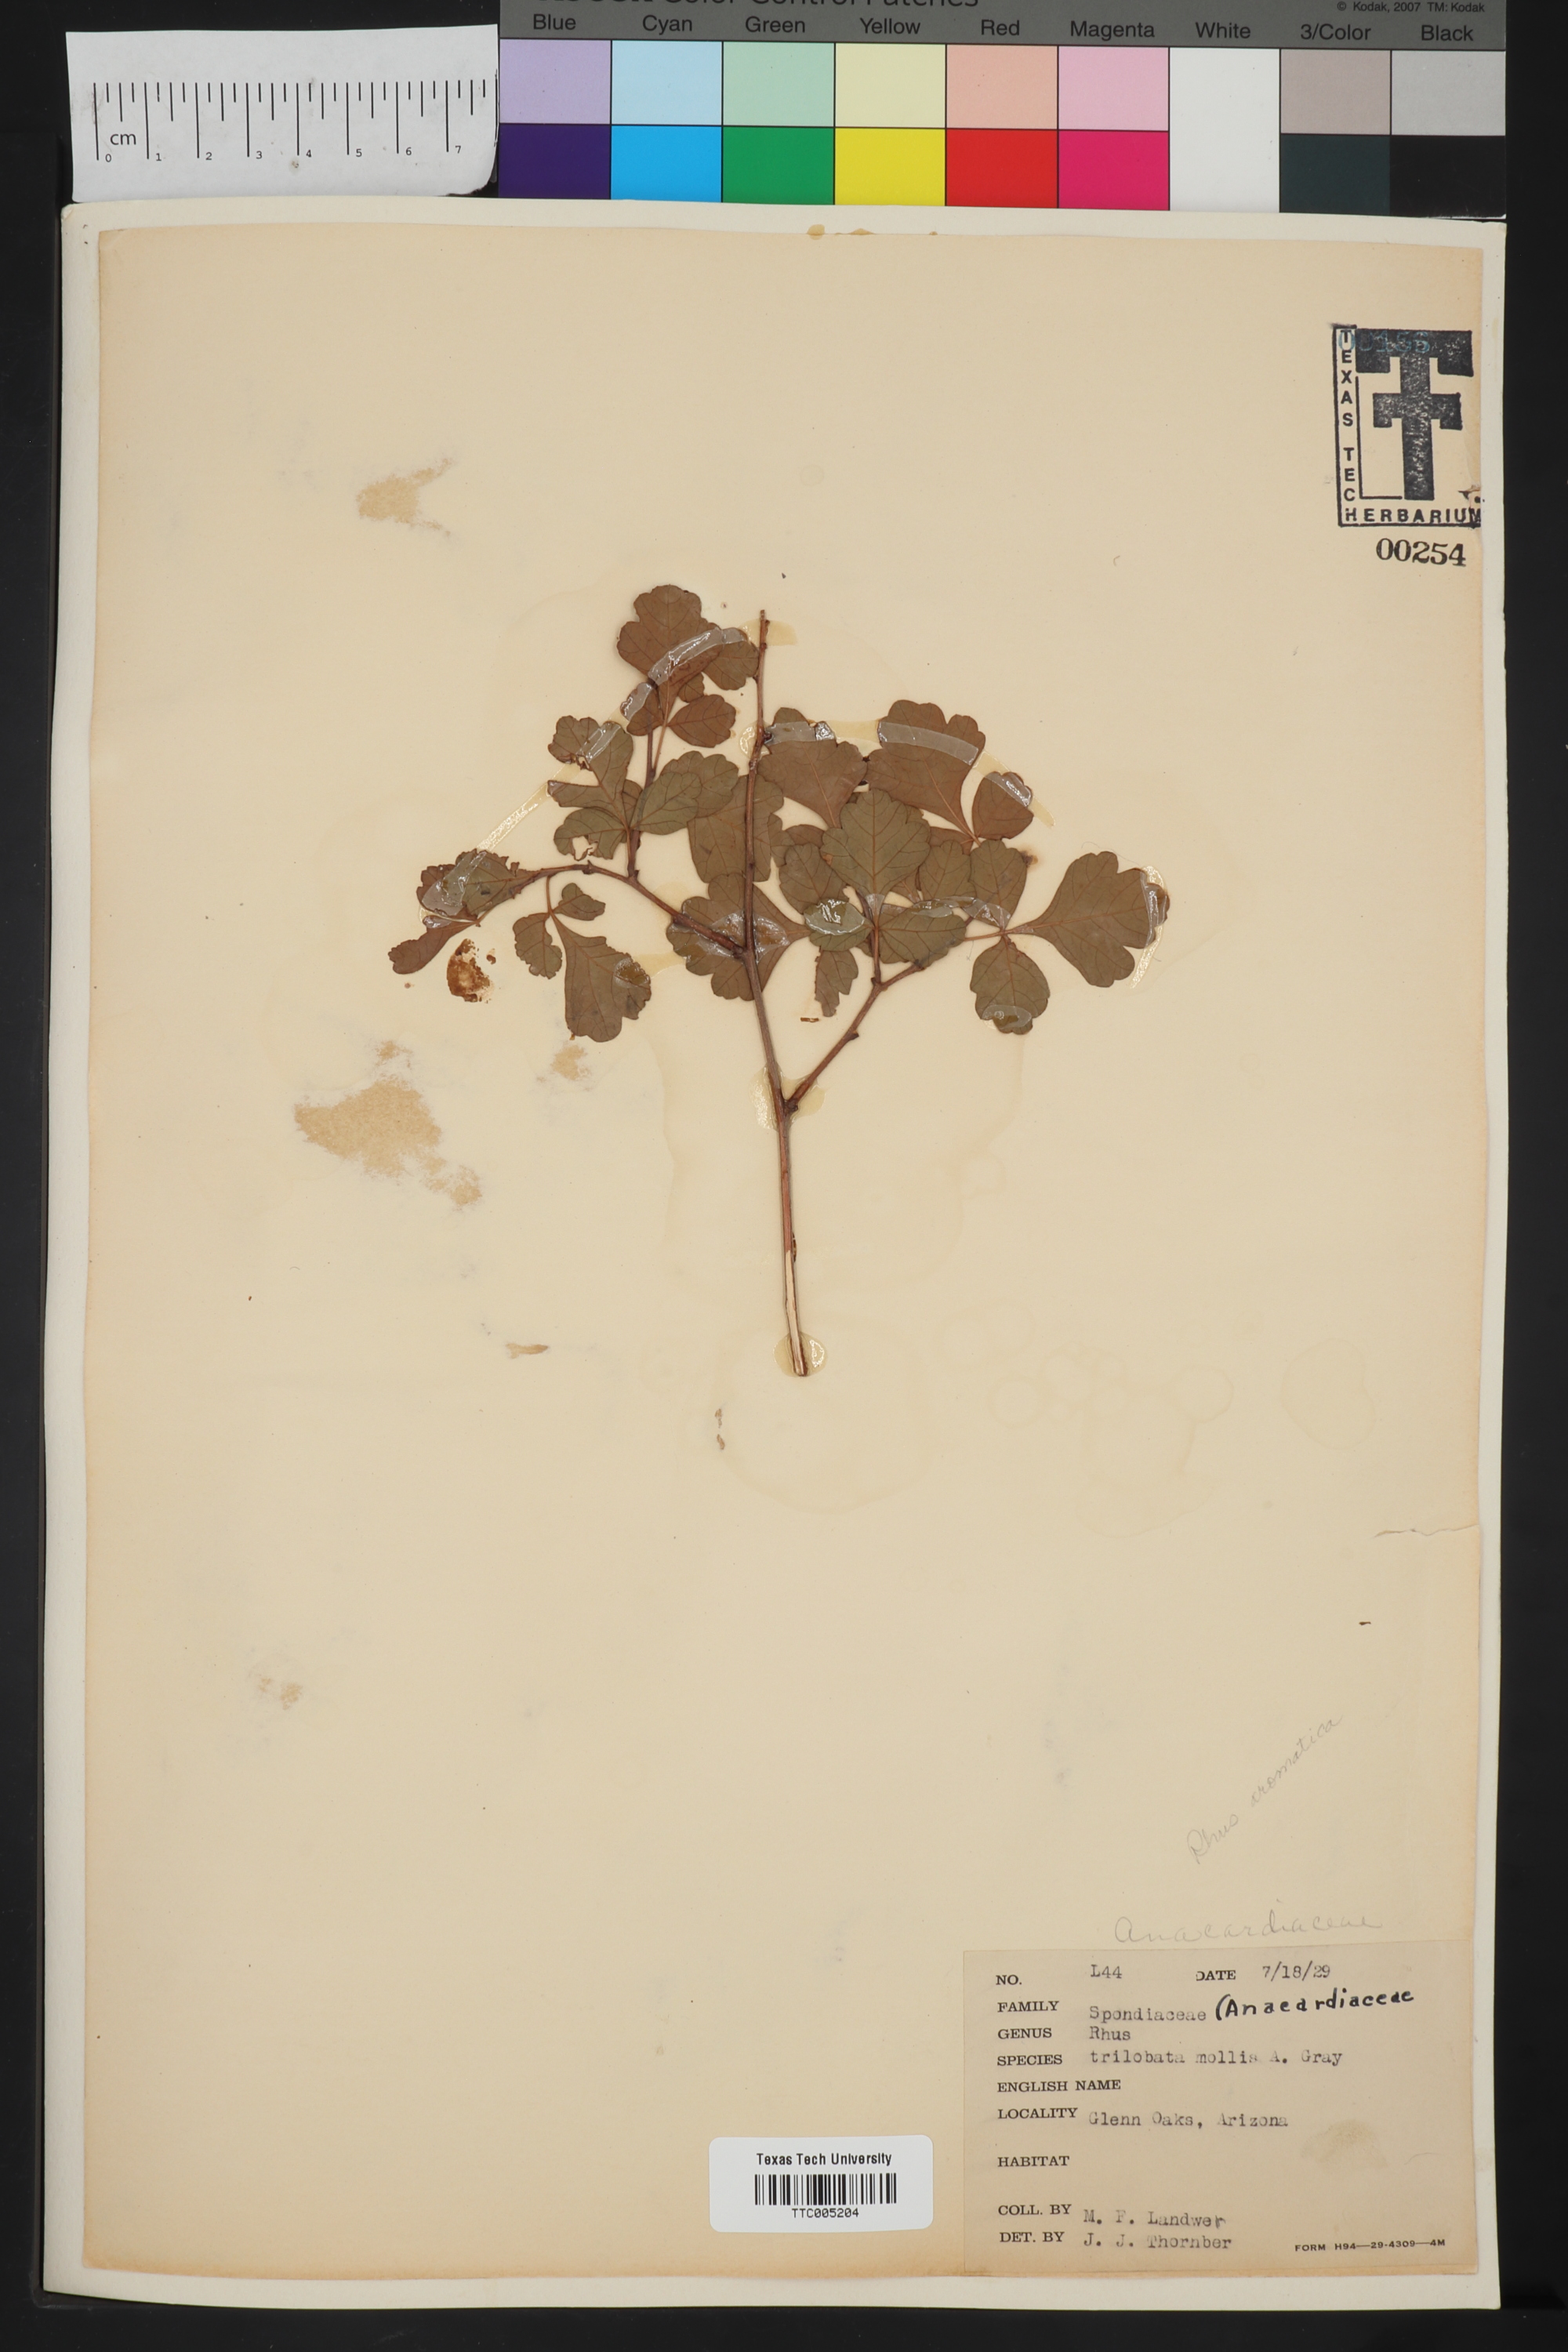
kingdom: Plantae
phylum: Tracheophyta
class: Magnoliopsida
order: Sapindales
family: Anacardiaceae
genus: Rhus
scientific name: Rhus trilobata
